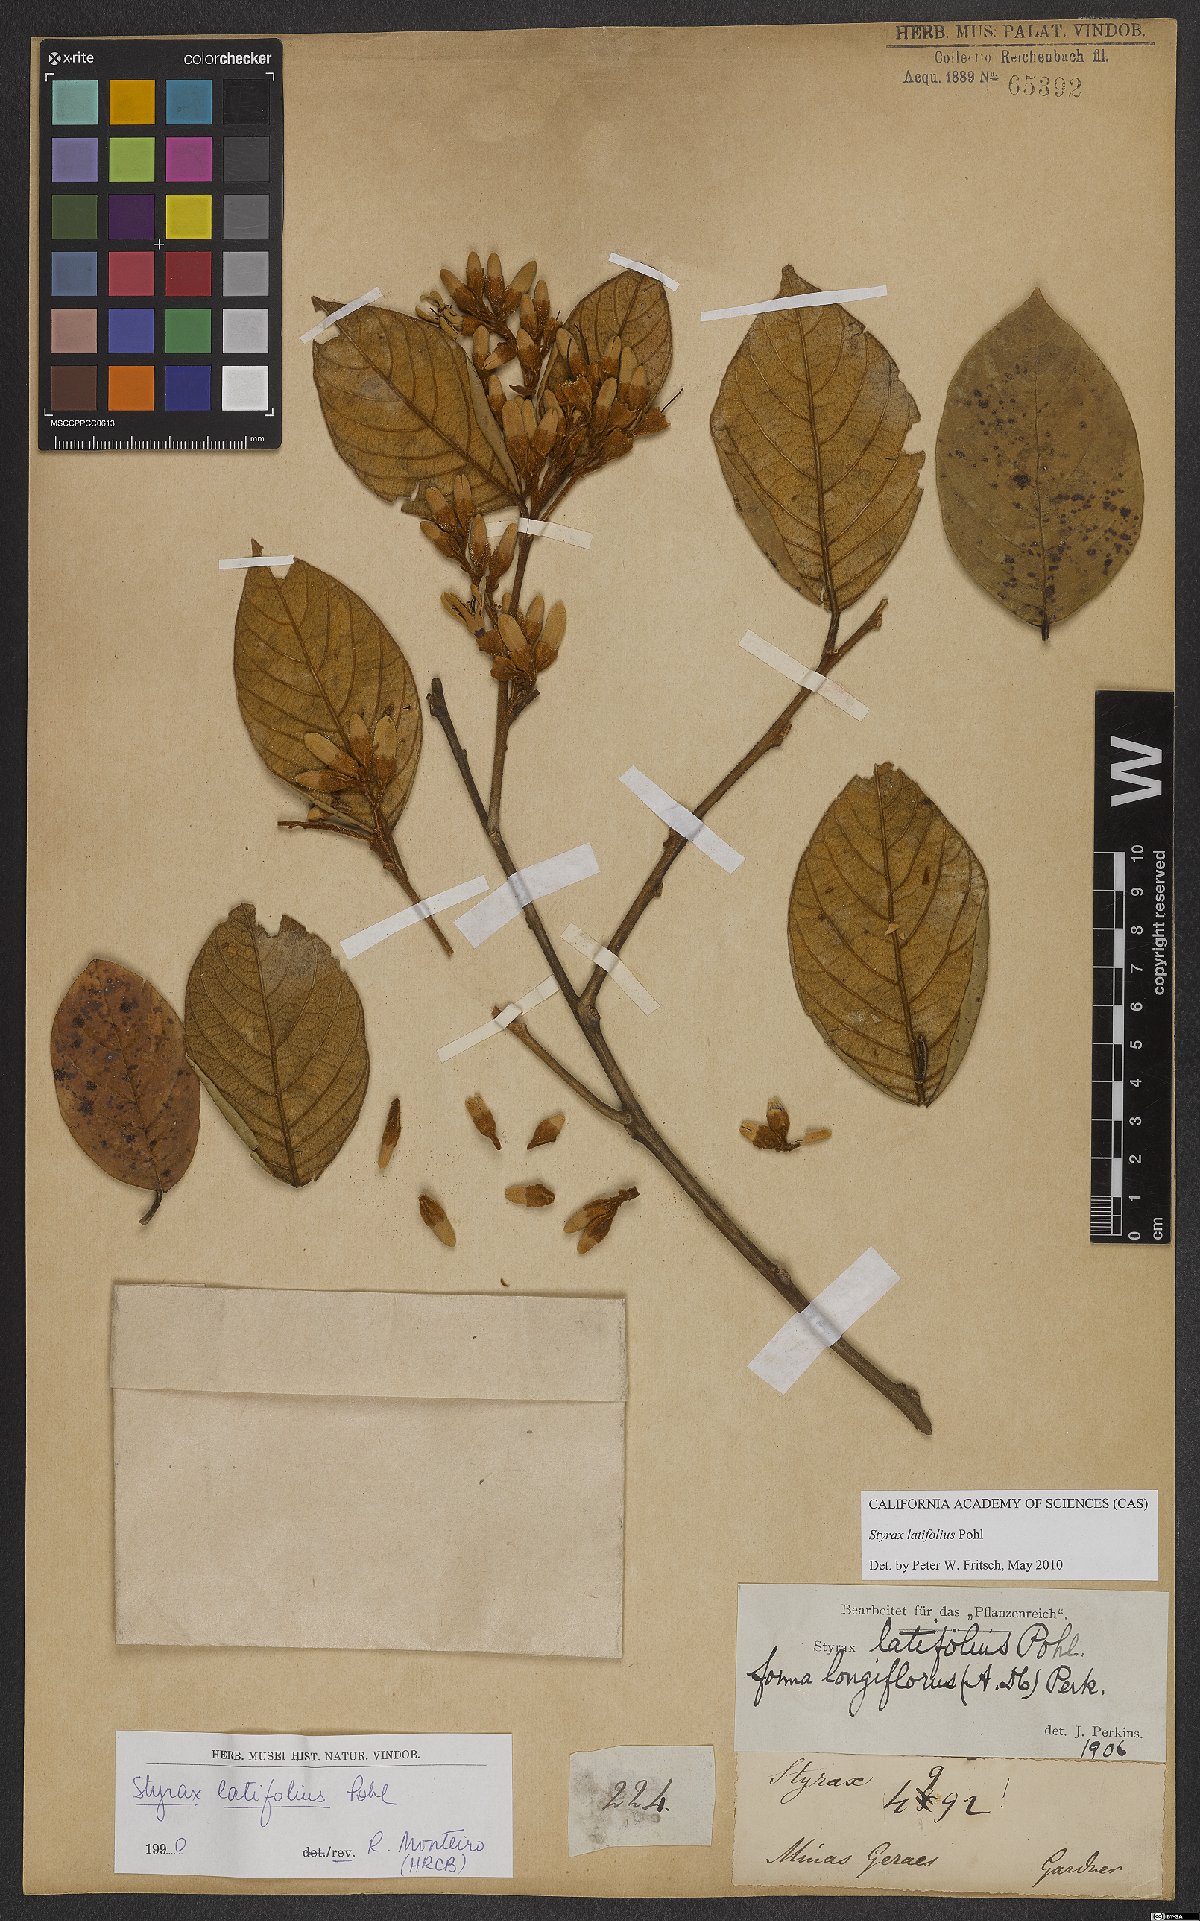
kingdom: Plantae
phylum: Tracheophyta
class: Magnoliopsida
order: Ericales
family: Styracaceae
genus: Styrax
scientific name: Styrax latifolius
